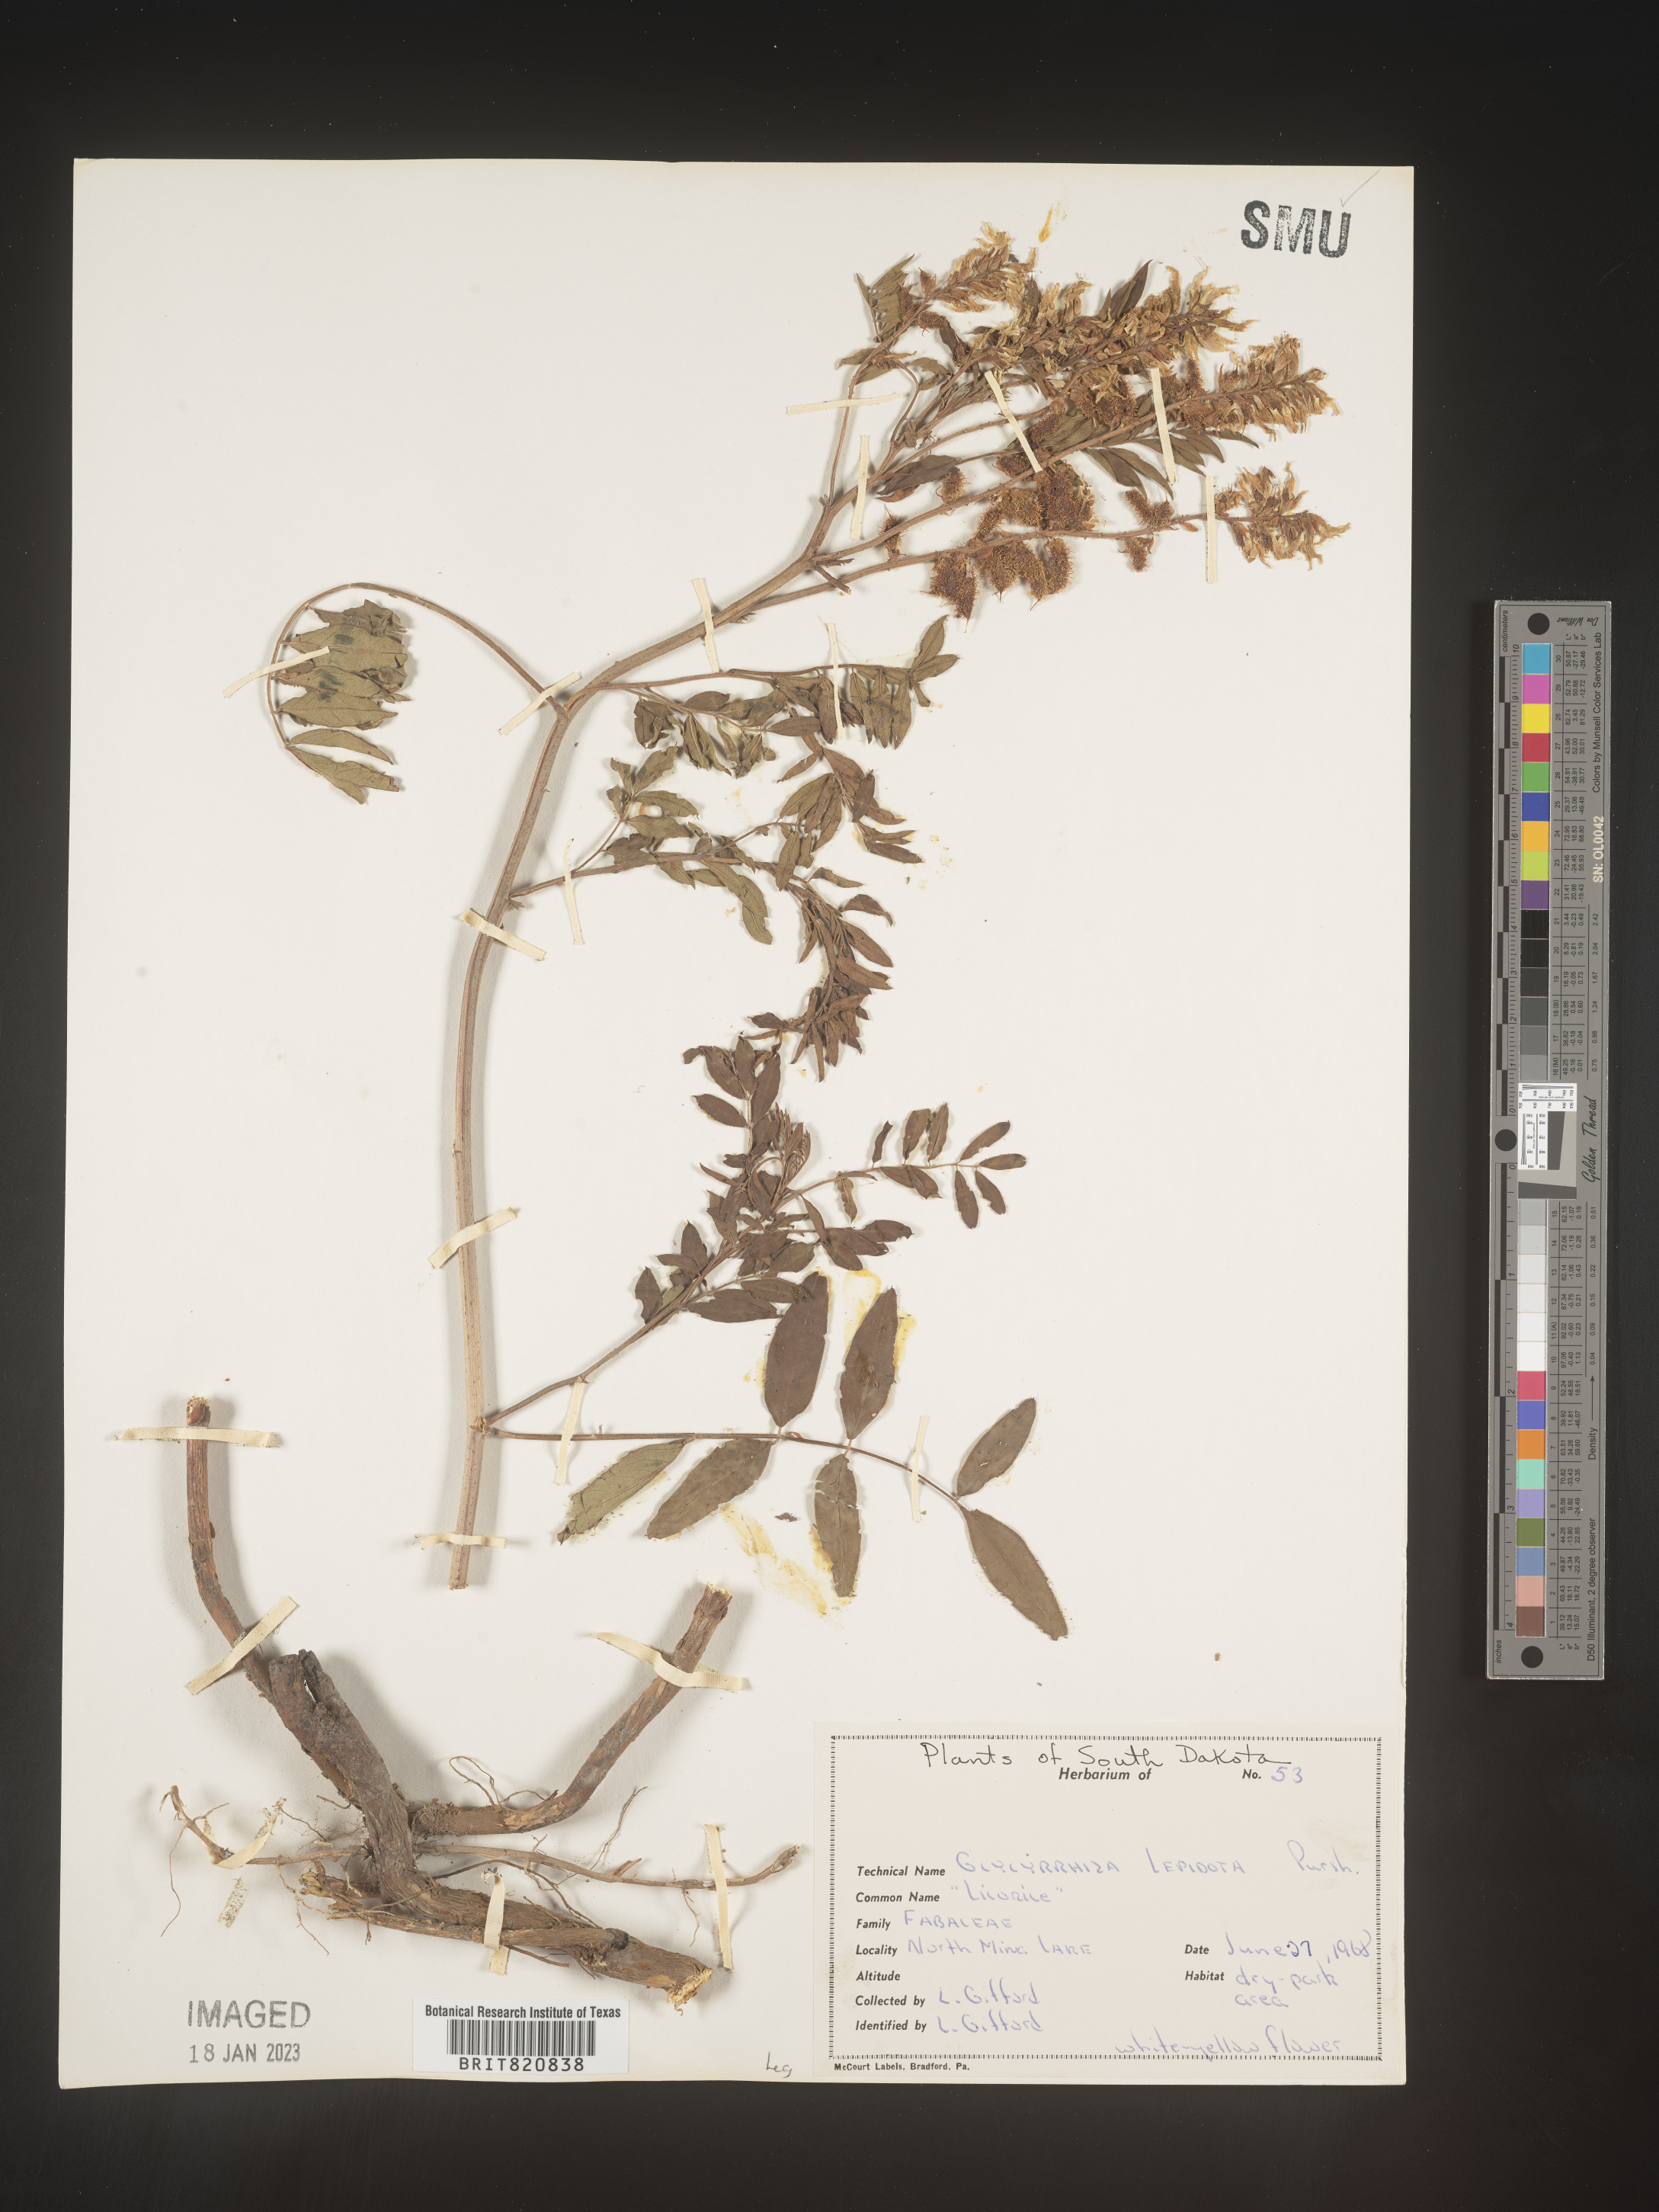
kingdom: Plantae
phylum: Tracheophyta
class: Magnoliopsida
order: Fabales
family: Fabaceae
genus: Glycyrrhiza
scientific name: Glycyrrhiza lepidota
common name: American liquorice
